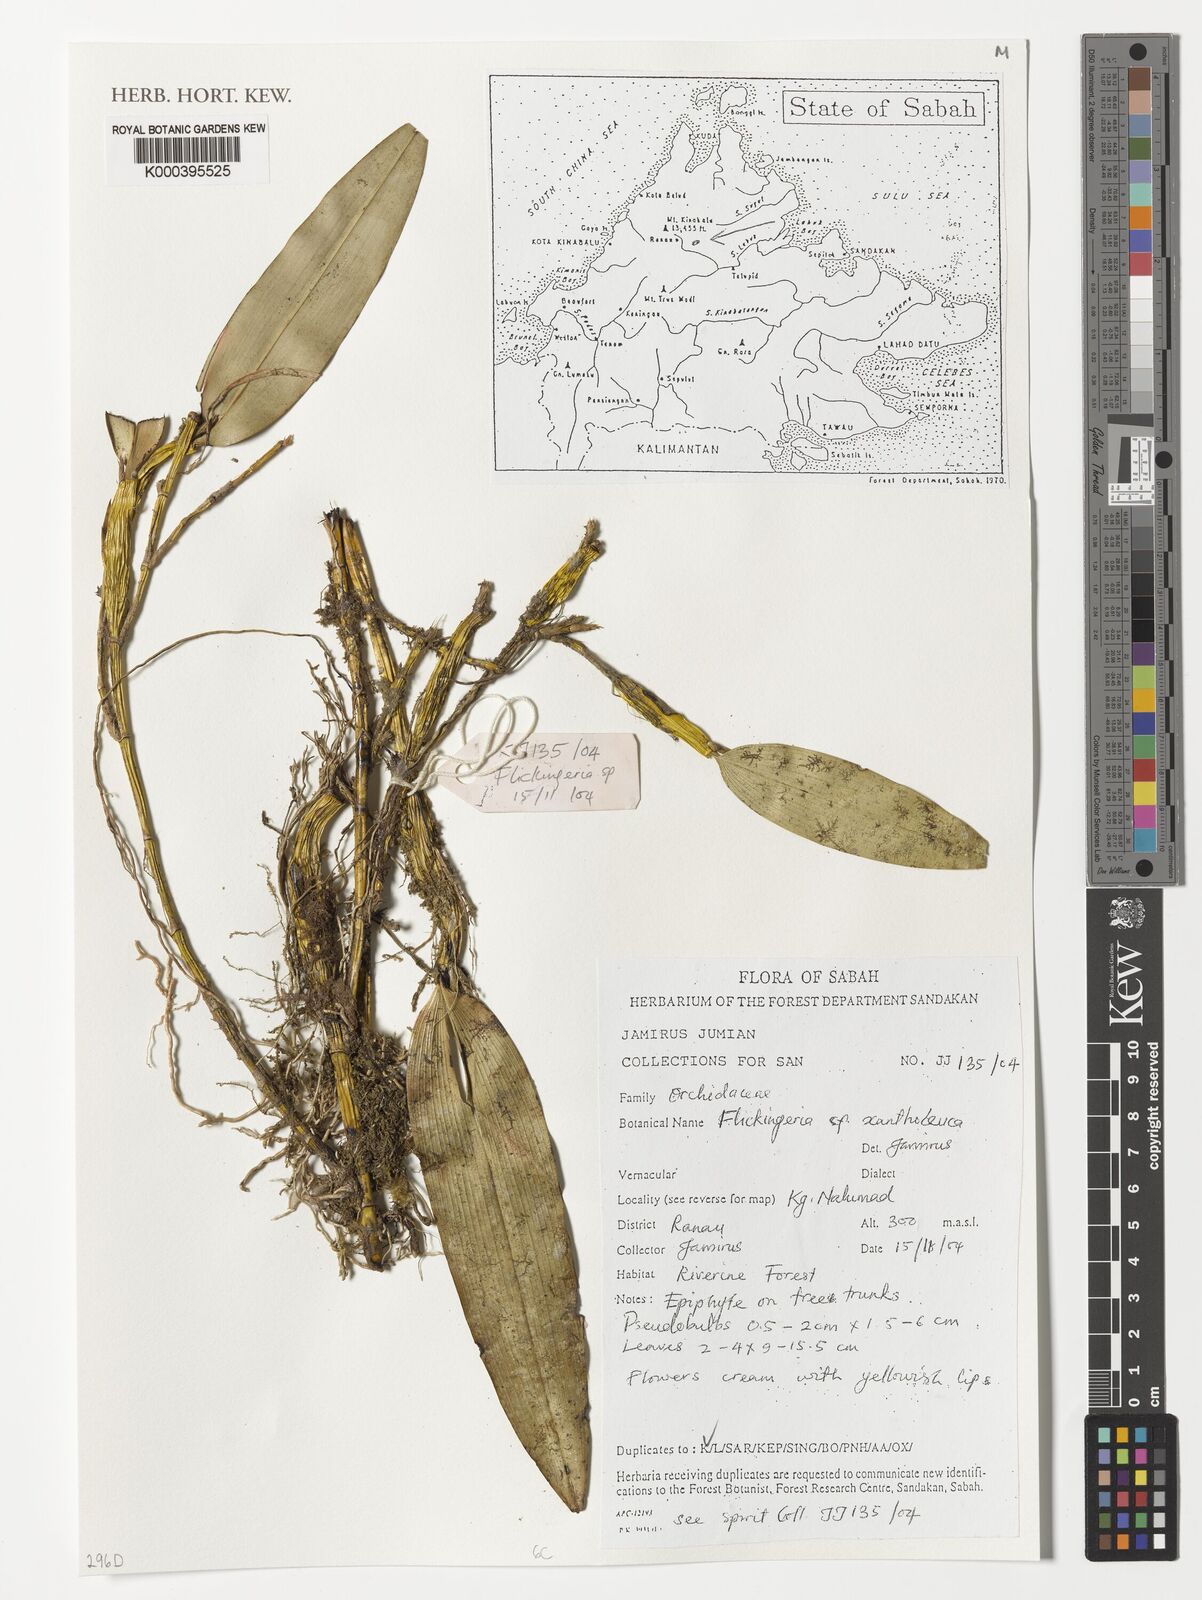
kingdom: Plantae
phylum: Tracheophyta
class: Liliopsida
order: Asparagales
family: Orchidaceae
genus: Dendrobium
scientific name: Dendrobium xantholeucum
